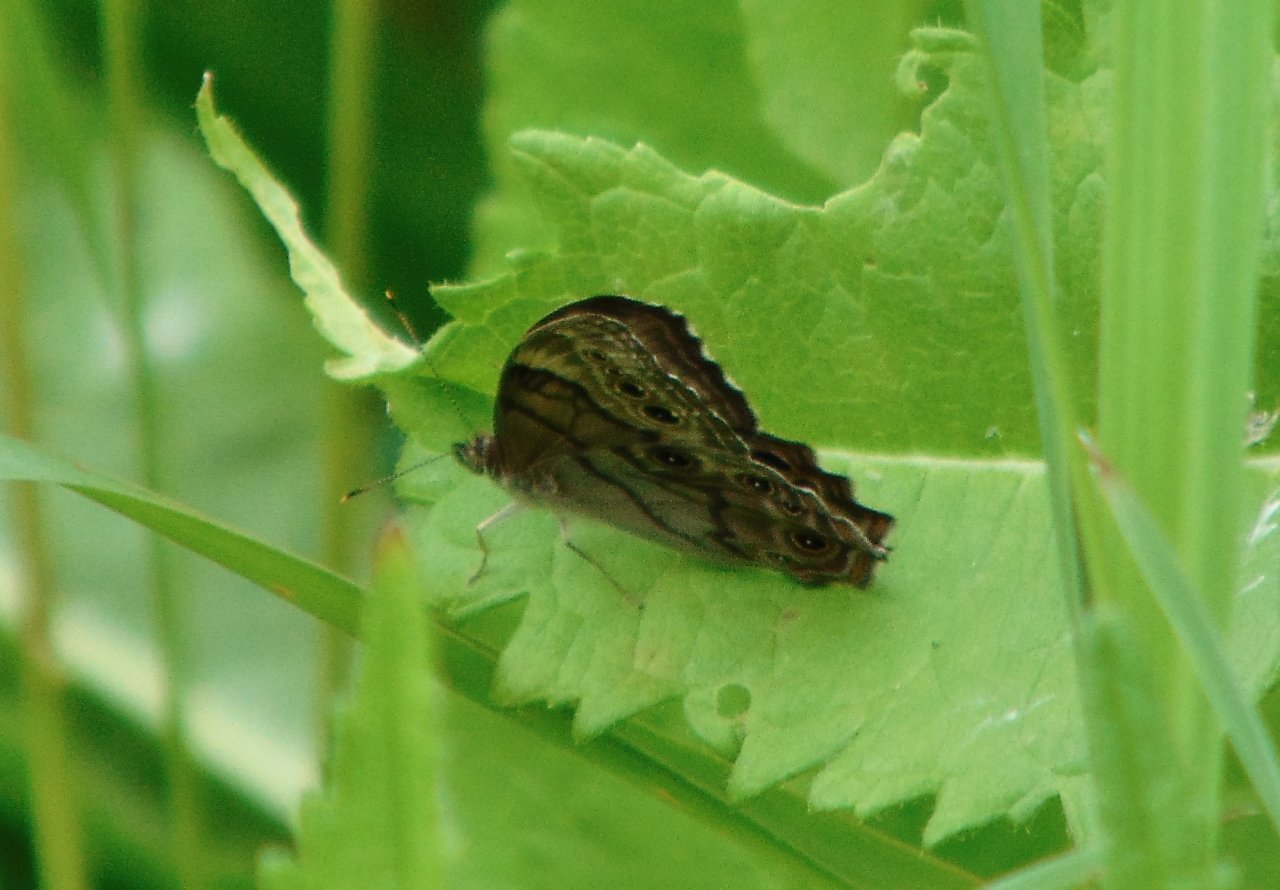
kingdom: Animalia
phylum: Arthropoda
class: Insecta
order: Lepidoptera
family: Nymphalidae
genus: Lethe
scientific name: Lethe anthedon
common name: Northern Pearly-Eye
